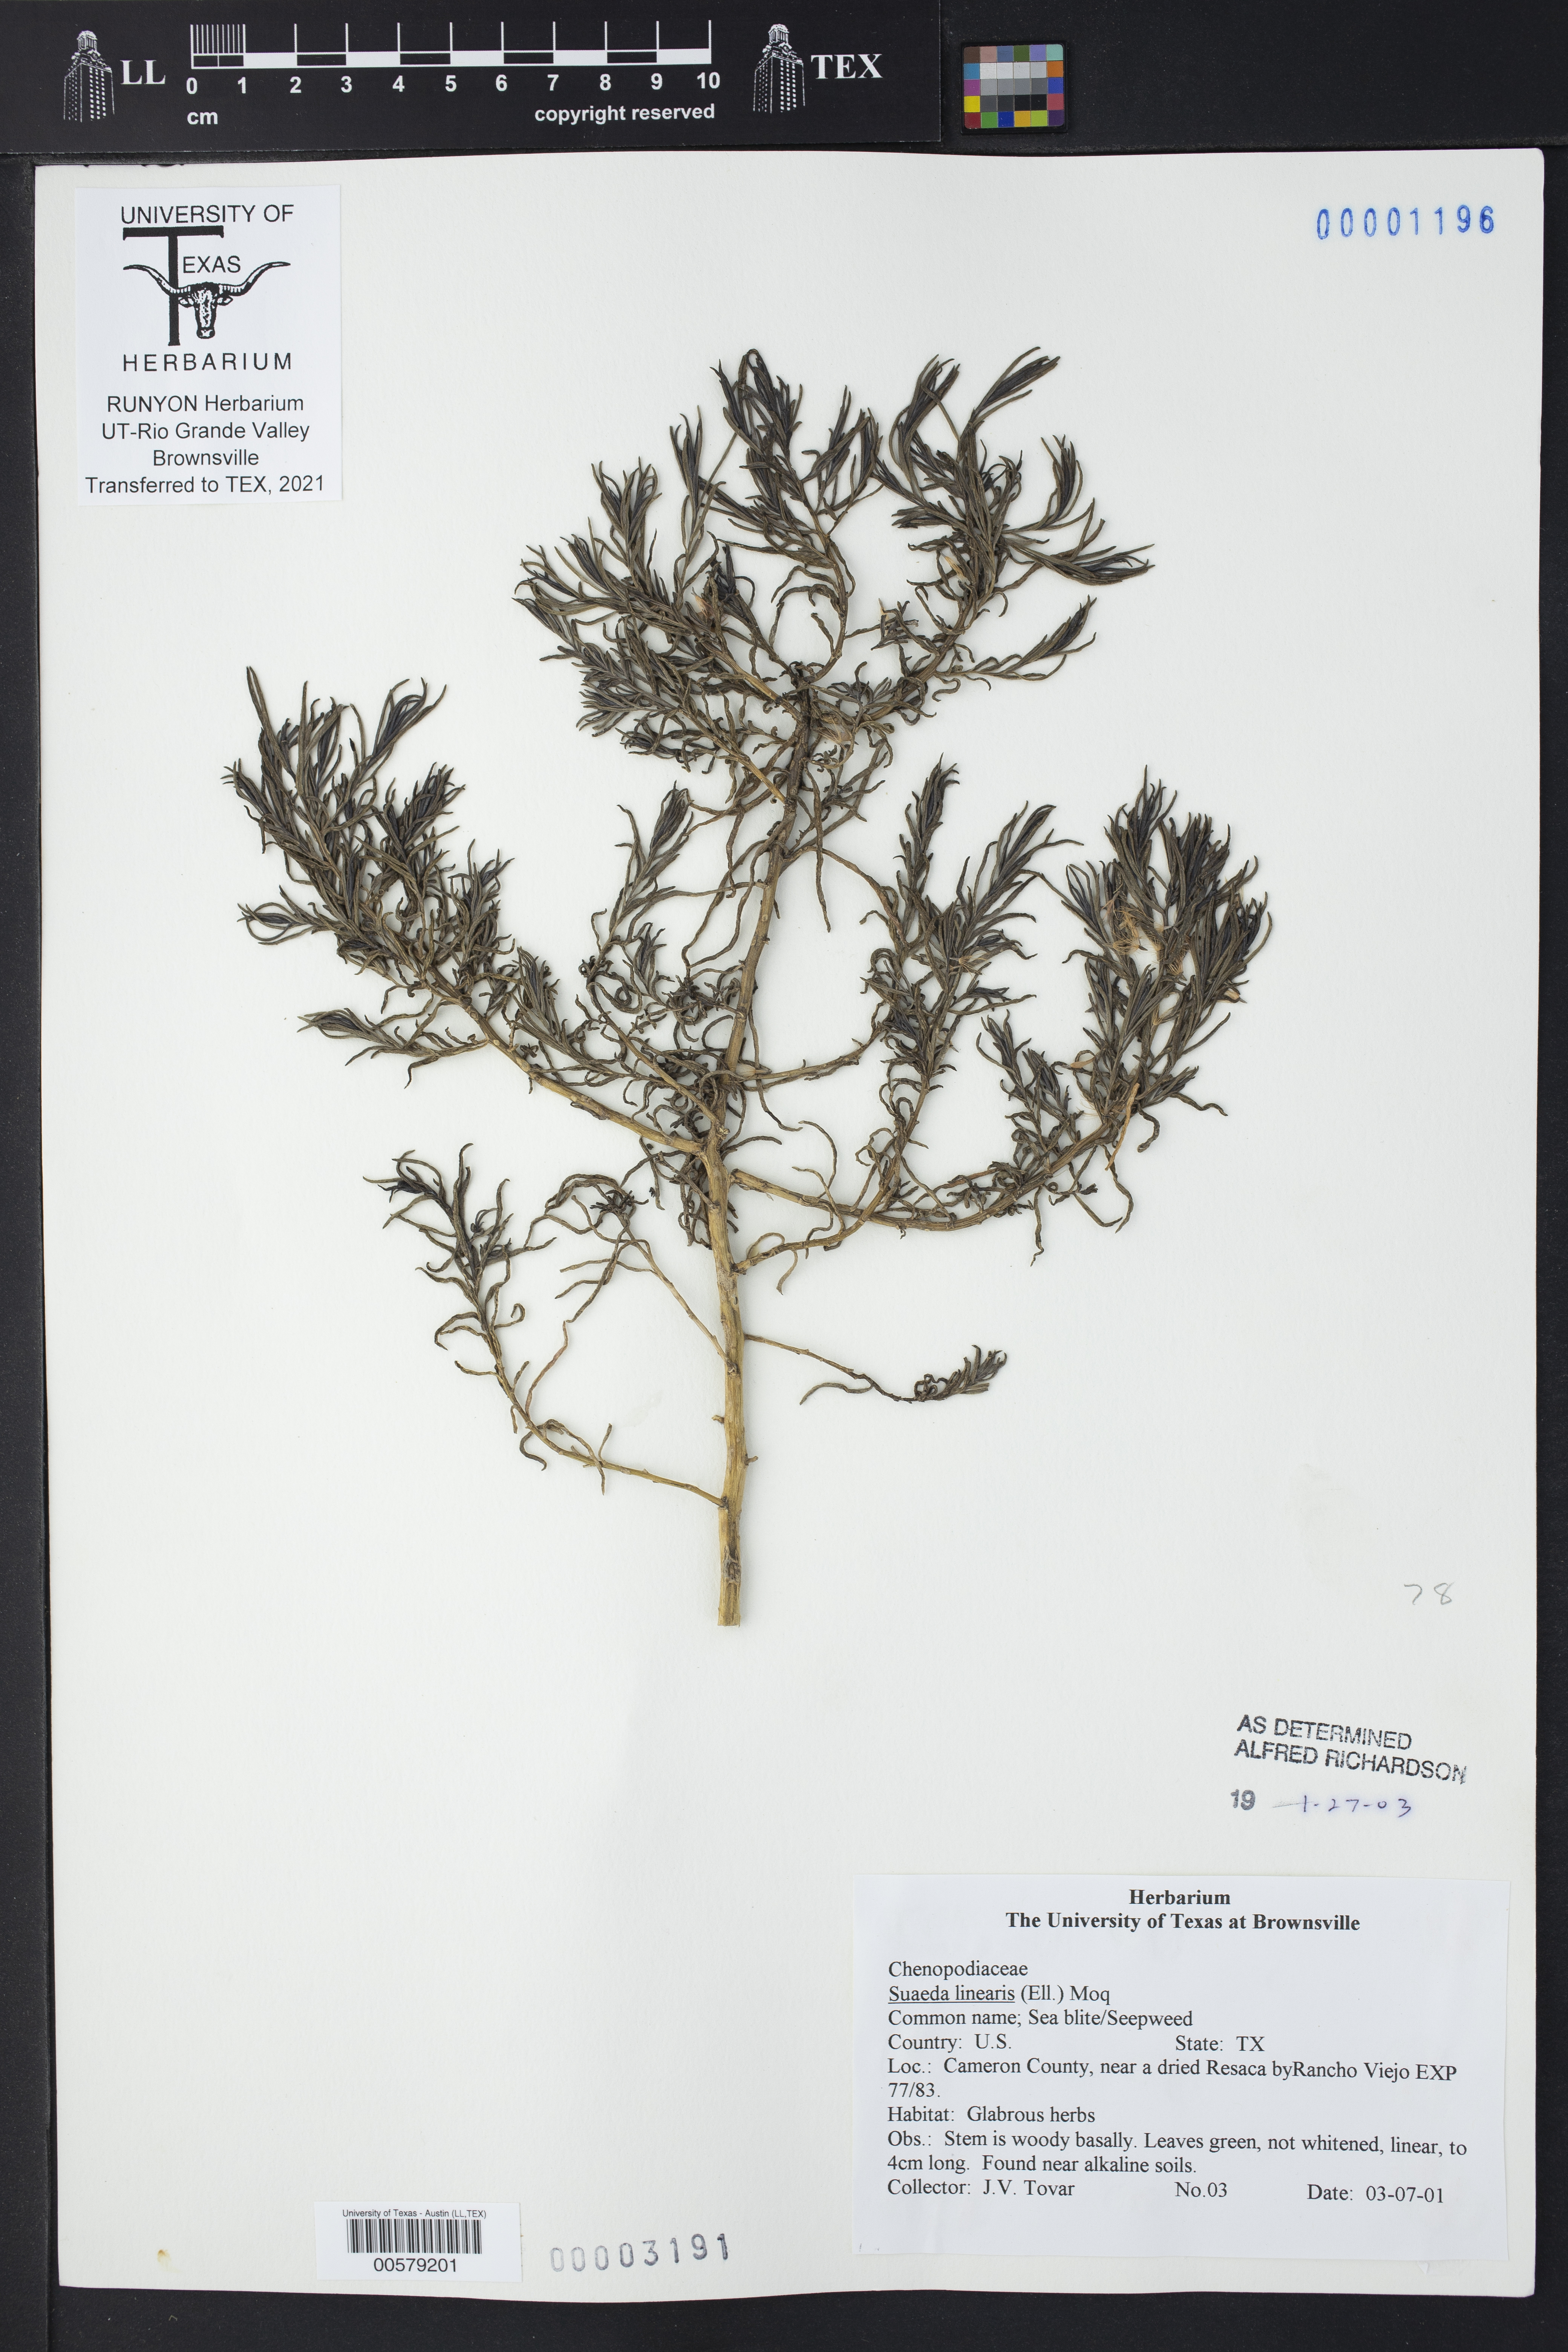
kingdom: Plantae
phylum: Tracheophyta
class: Magnoliopsida
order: Caryophyllales
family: Amaranthaceae
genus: Suaeda
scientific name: Suaeda linearis
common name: Annual seepweed
